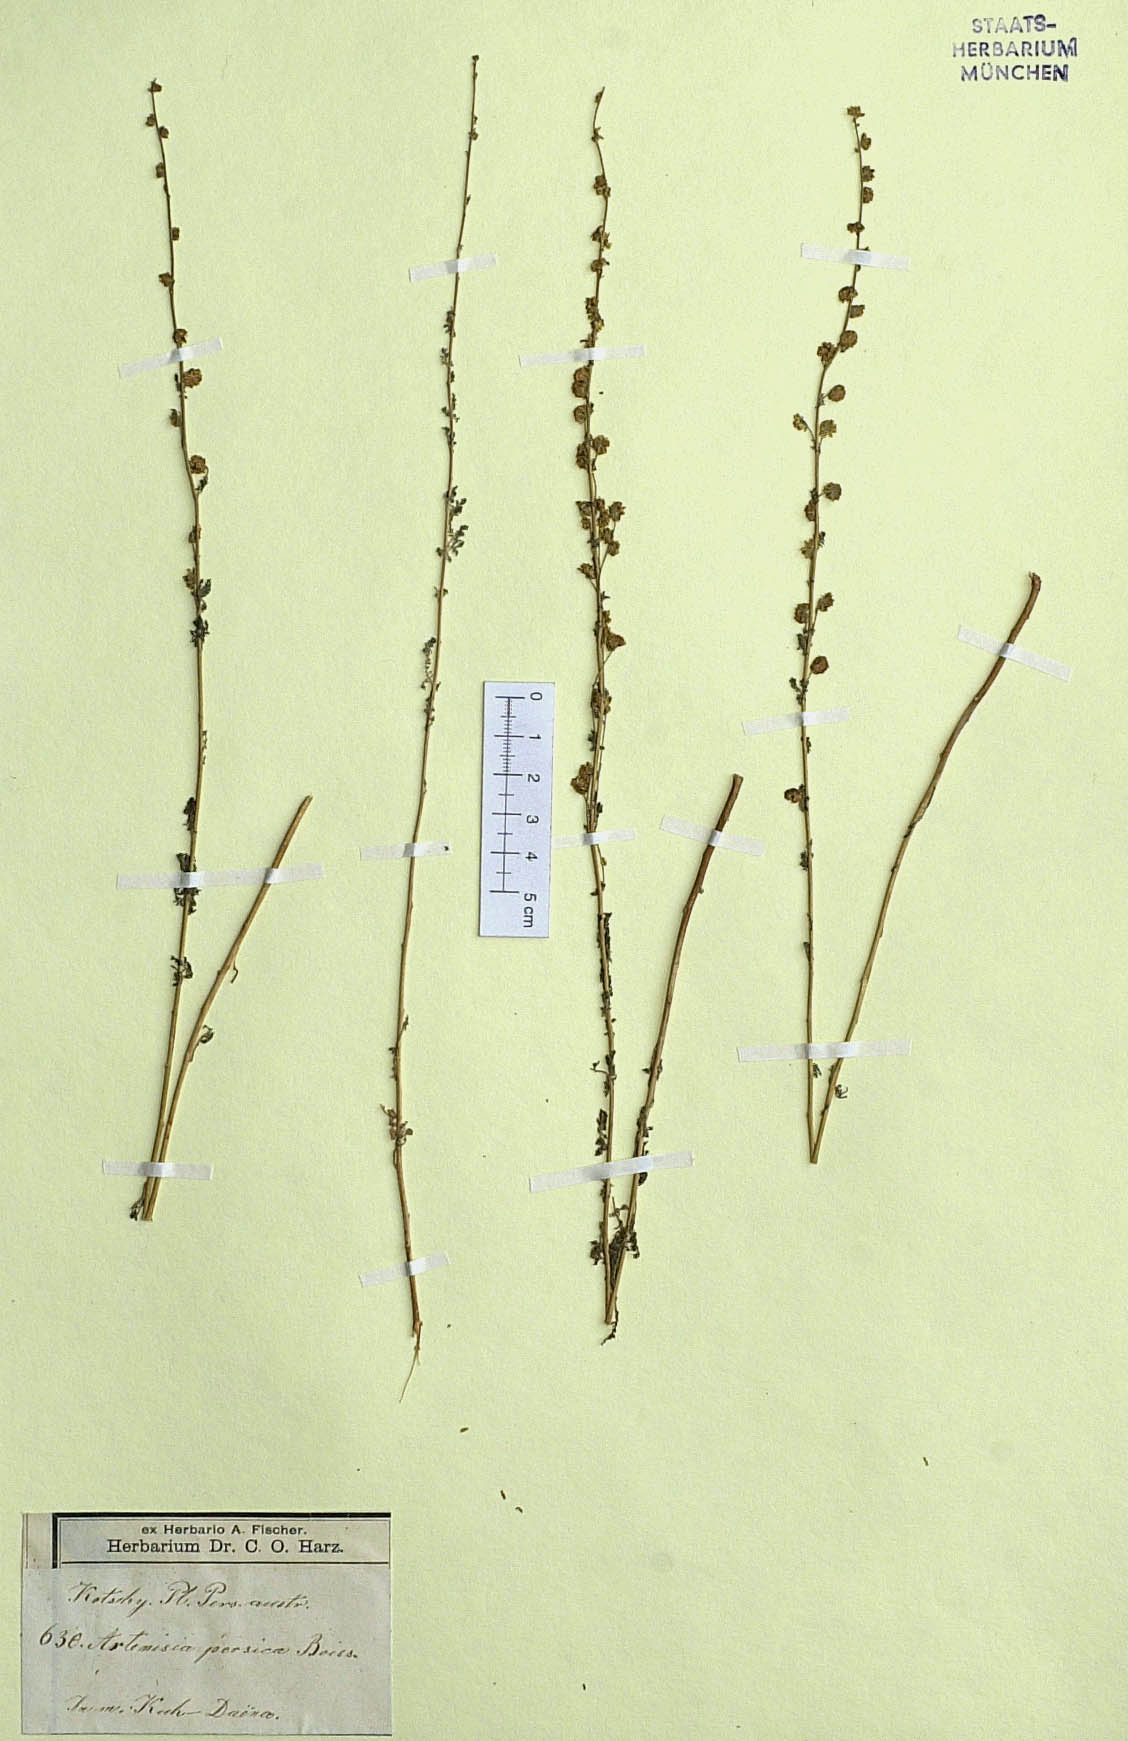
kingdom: Plantae
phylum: Tracheophyta
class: Magnoliopsida
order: Asterales
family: Asteraceae
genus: Artemisia
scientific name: Artemisia persica
